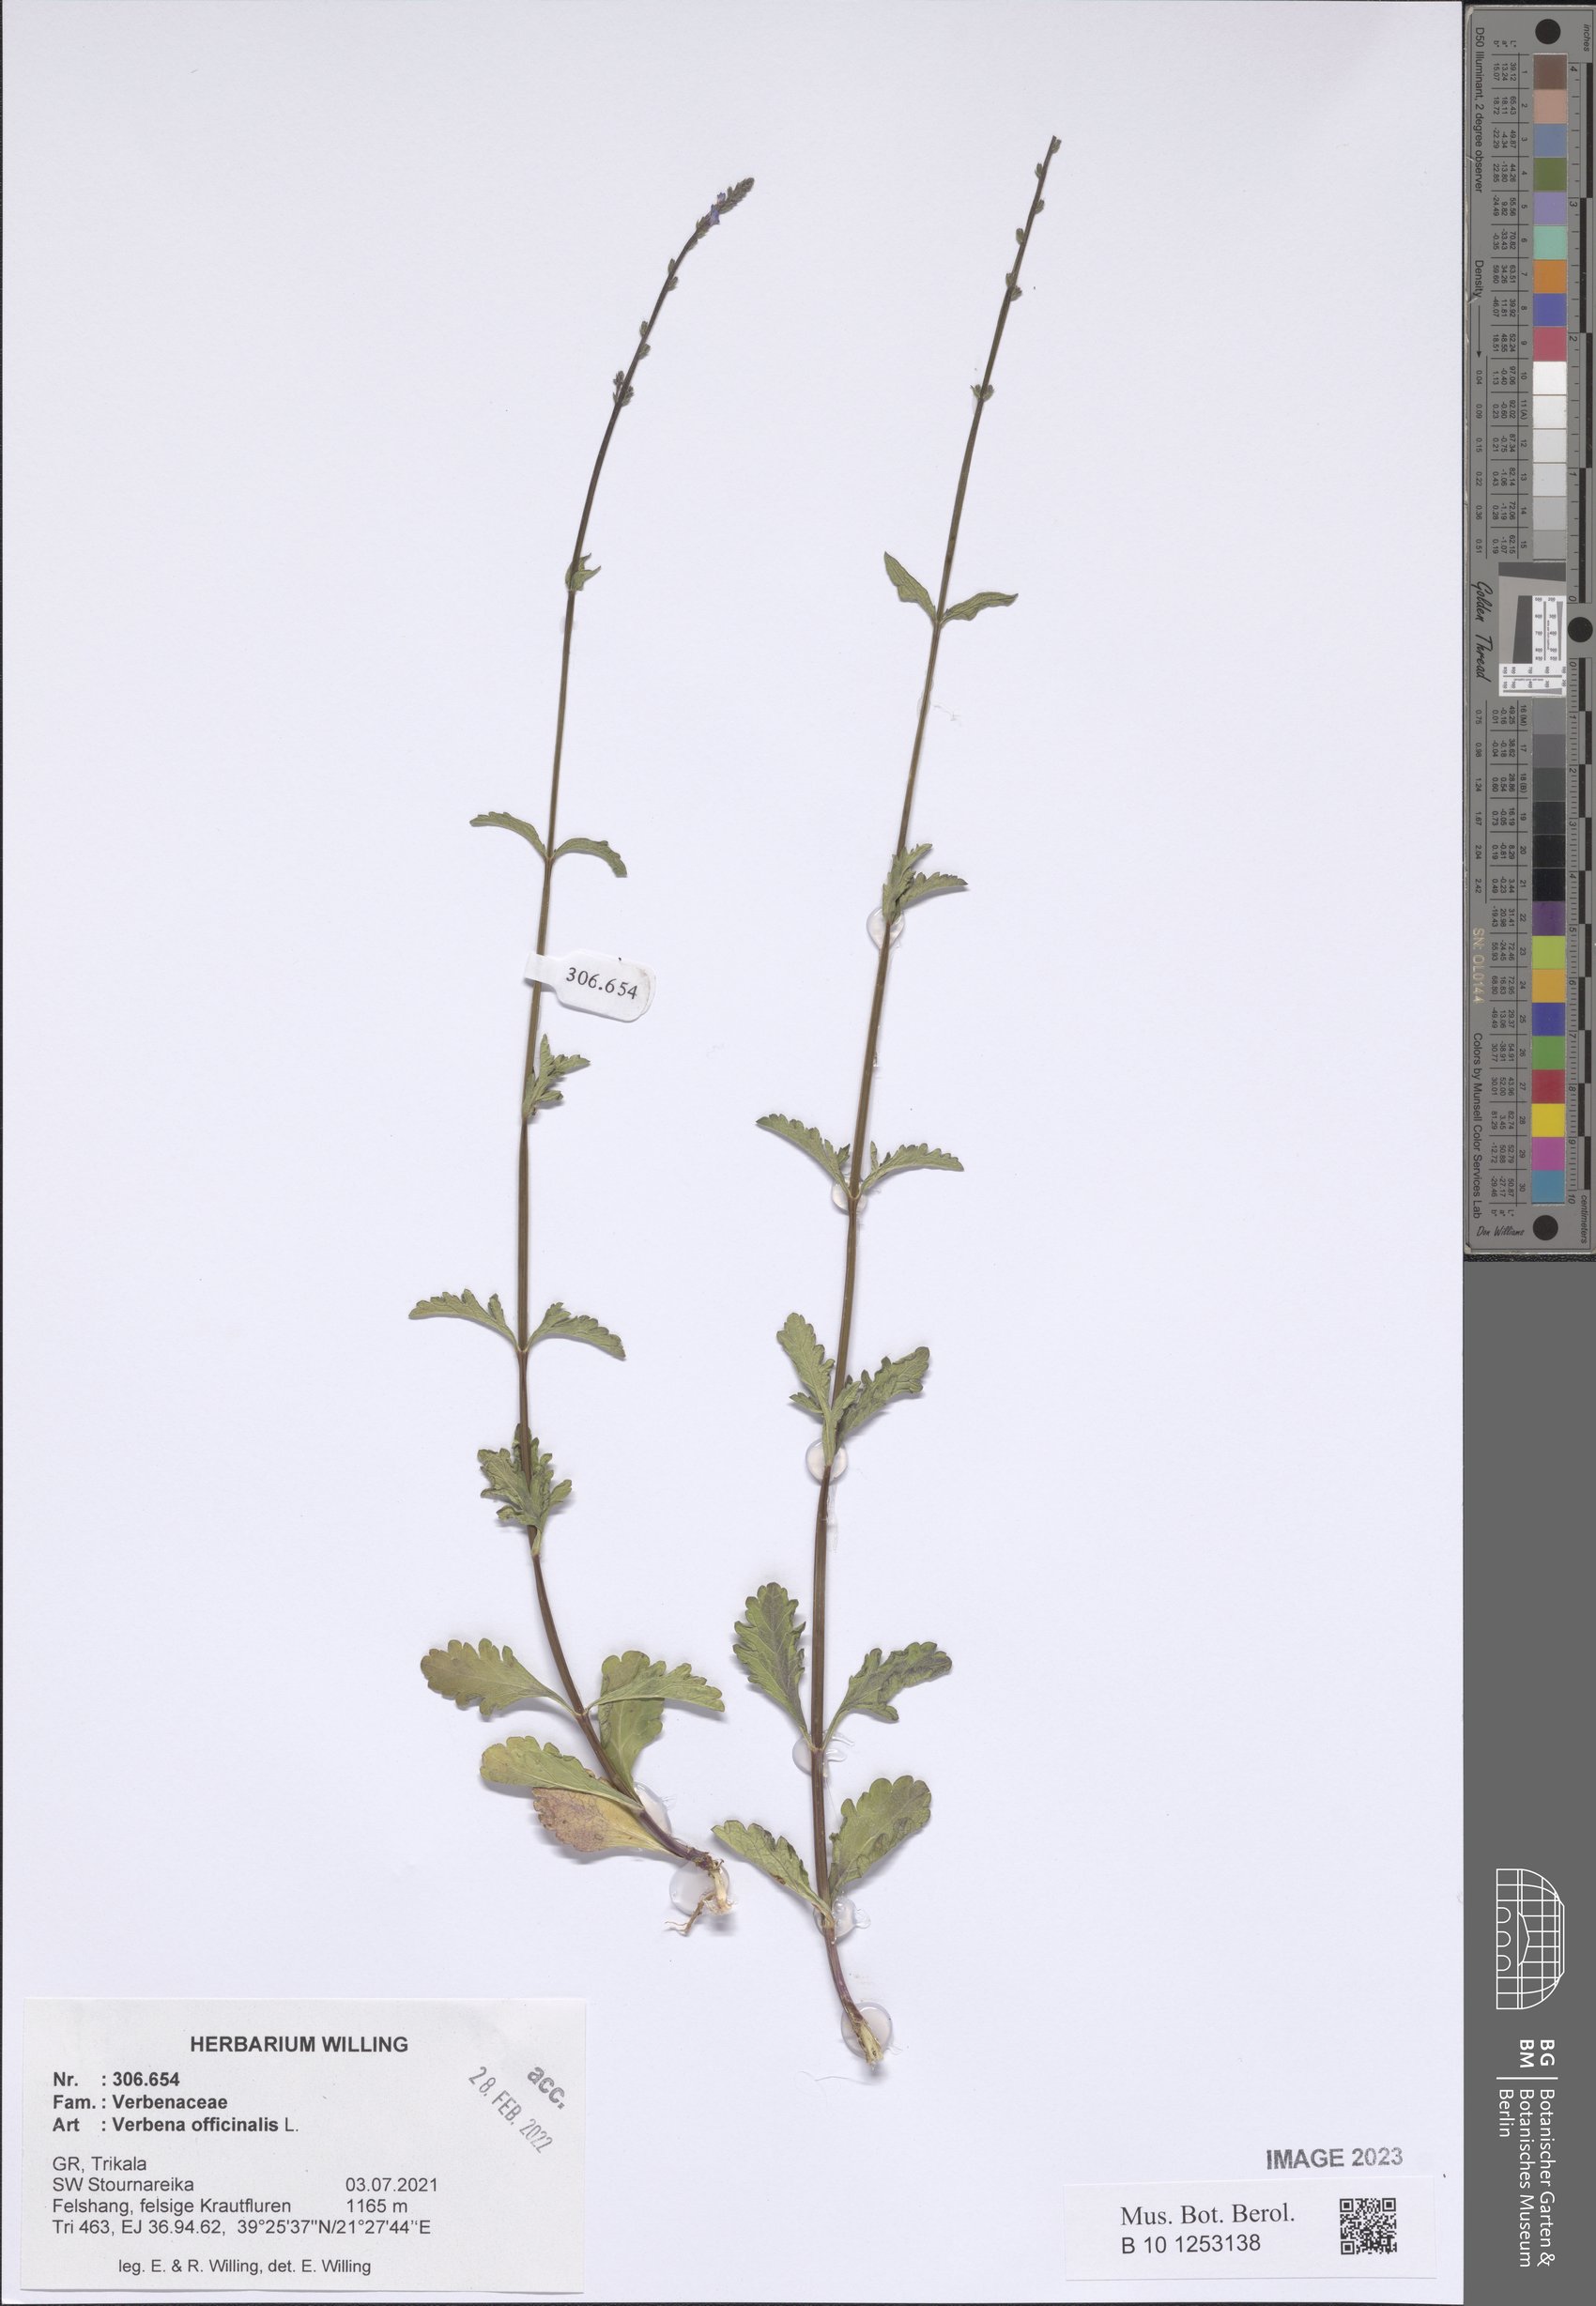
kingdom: Plantae
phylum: Tracheophyta
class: Magnoliopsida
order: Lamiales
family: Verbenaceae
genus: Verbena
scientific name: Verbena officinalis
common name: Vervain
